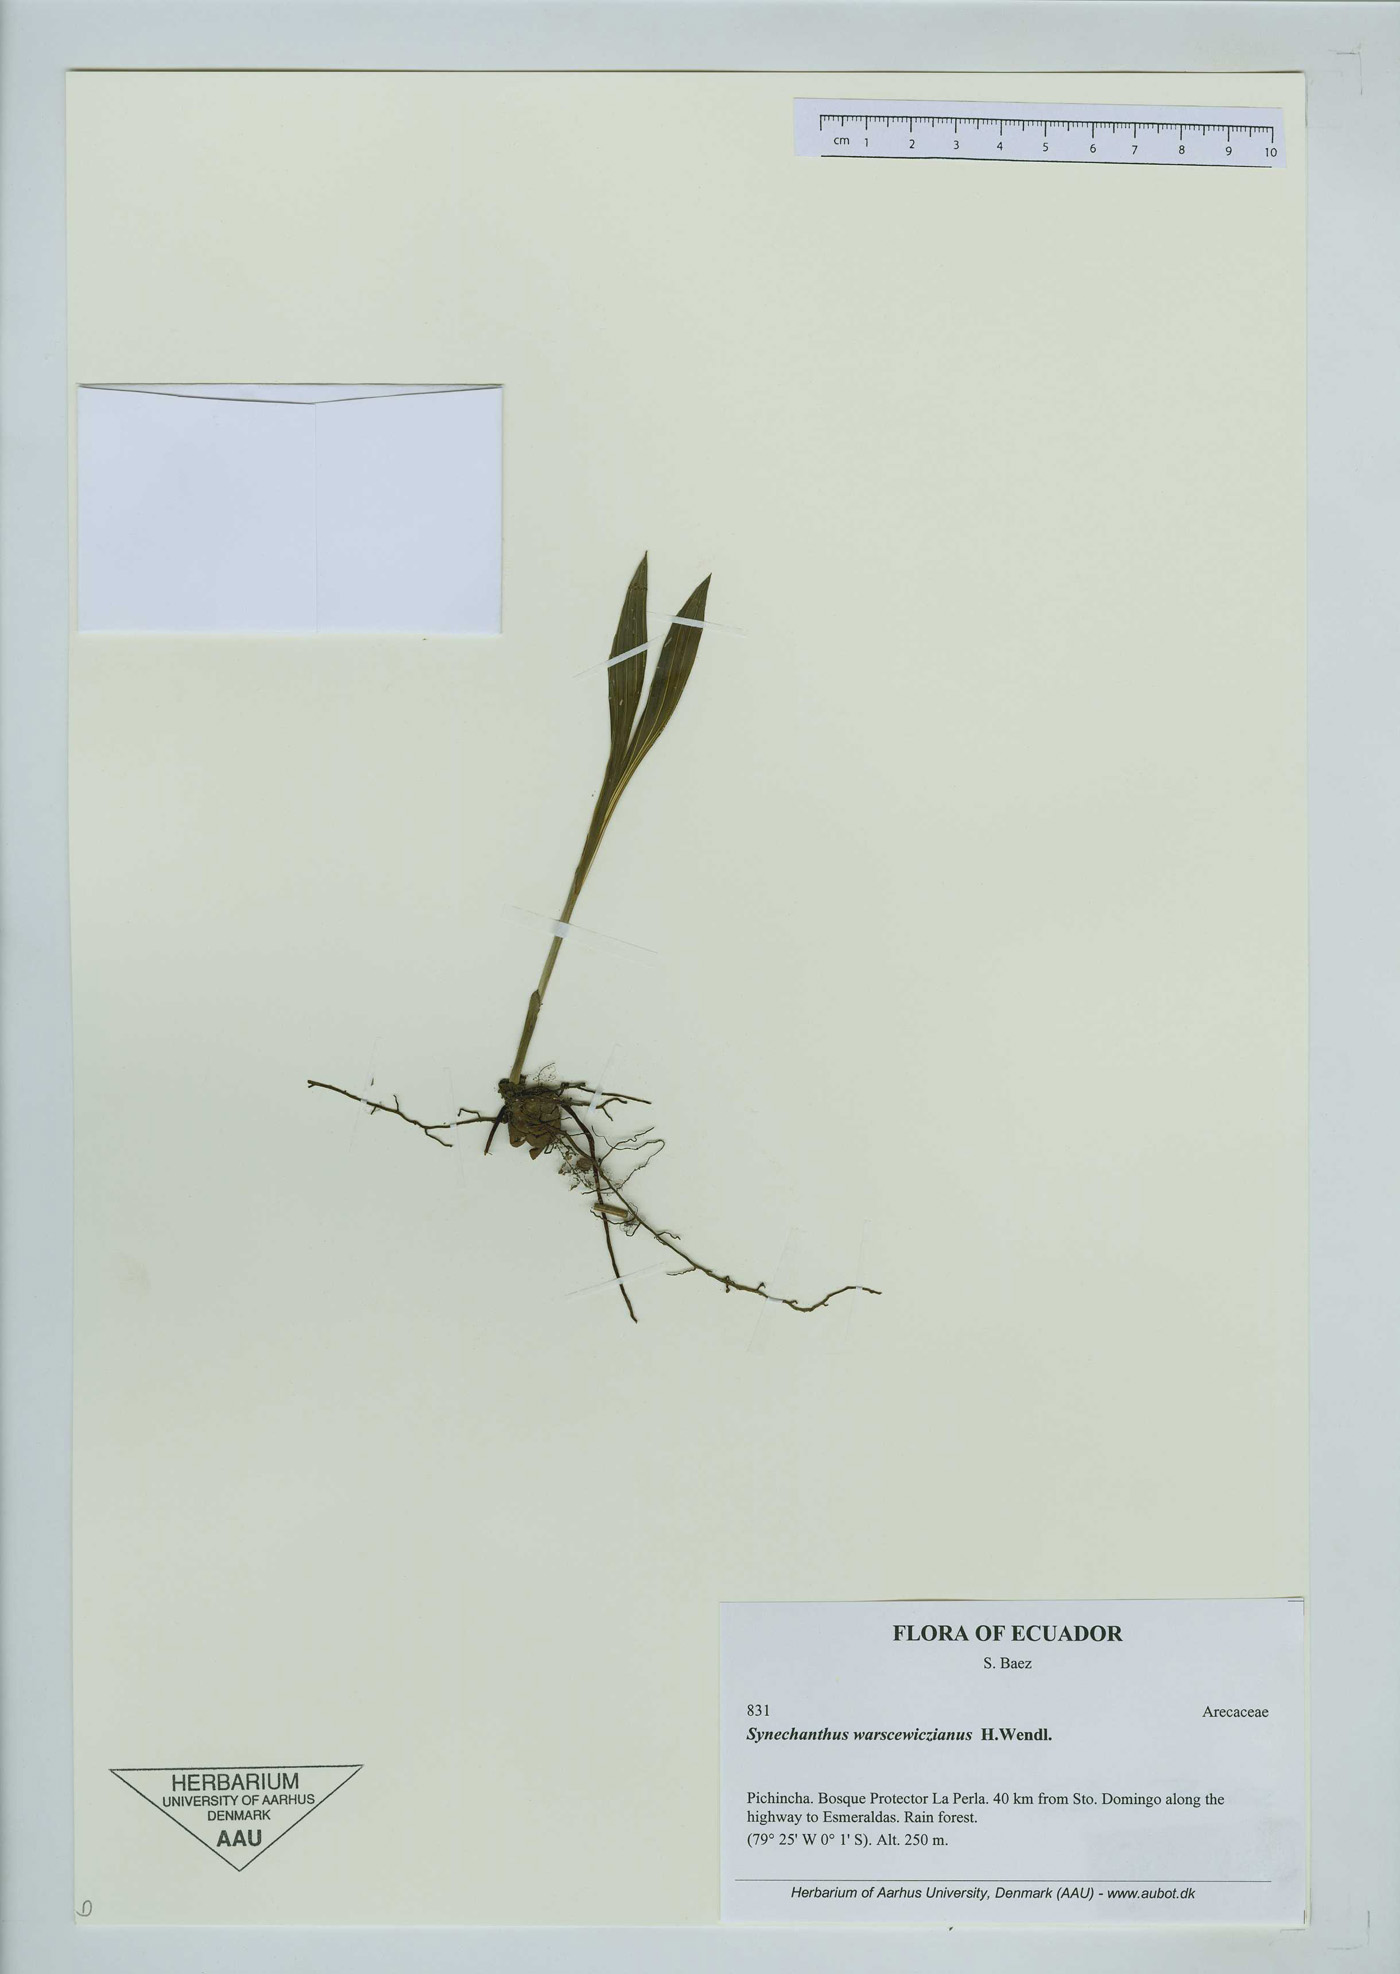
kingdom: Plantae
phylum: Tracheophyta
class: Liliopsida
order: Arecales
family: Arecaceae
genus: Synechanthus
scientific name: Synechanthus warscewiczianus
